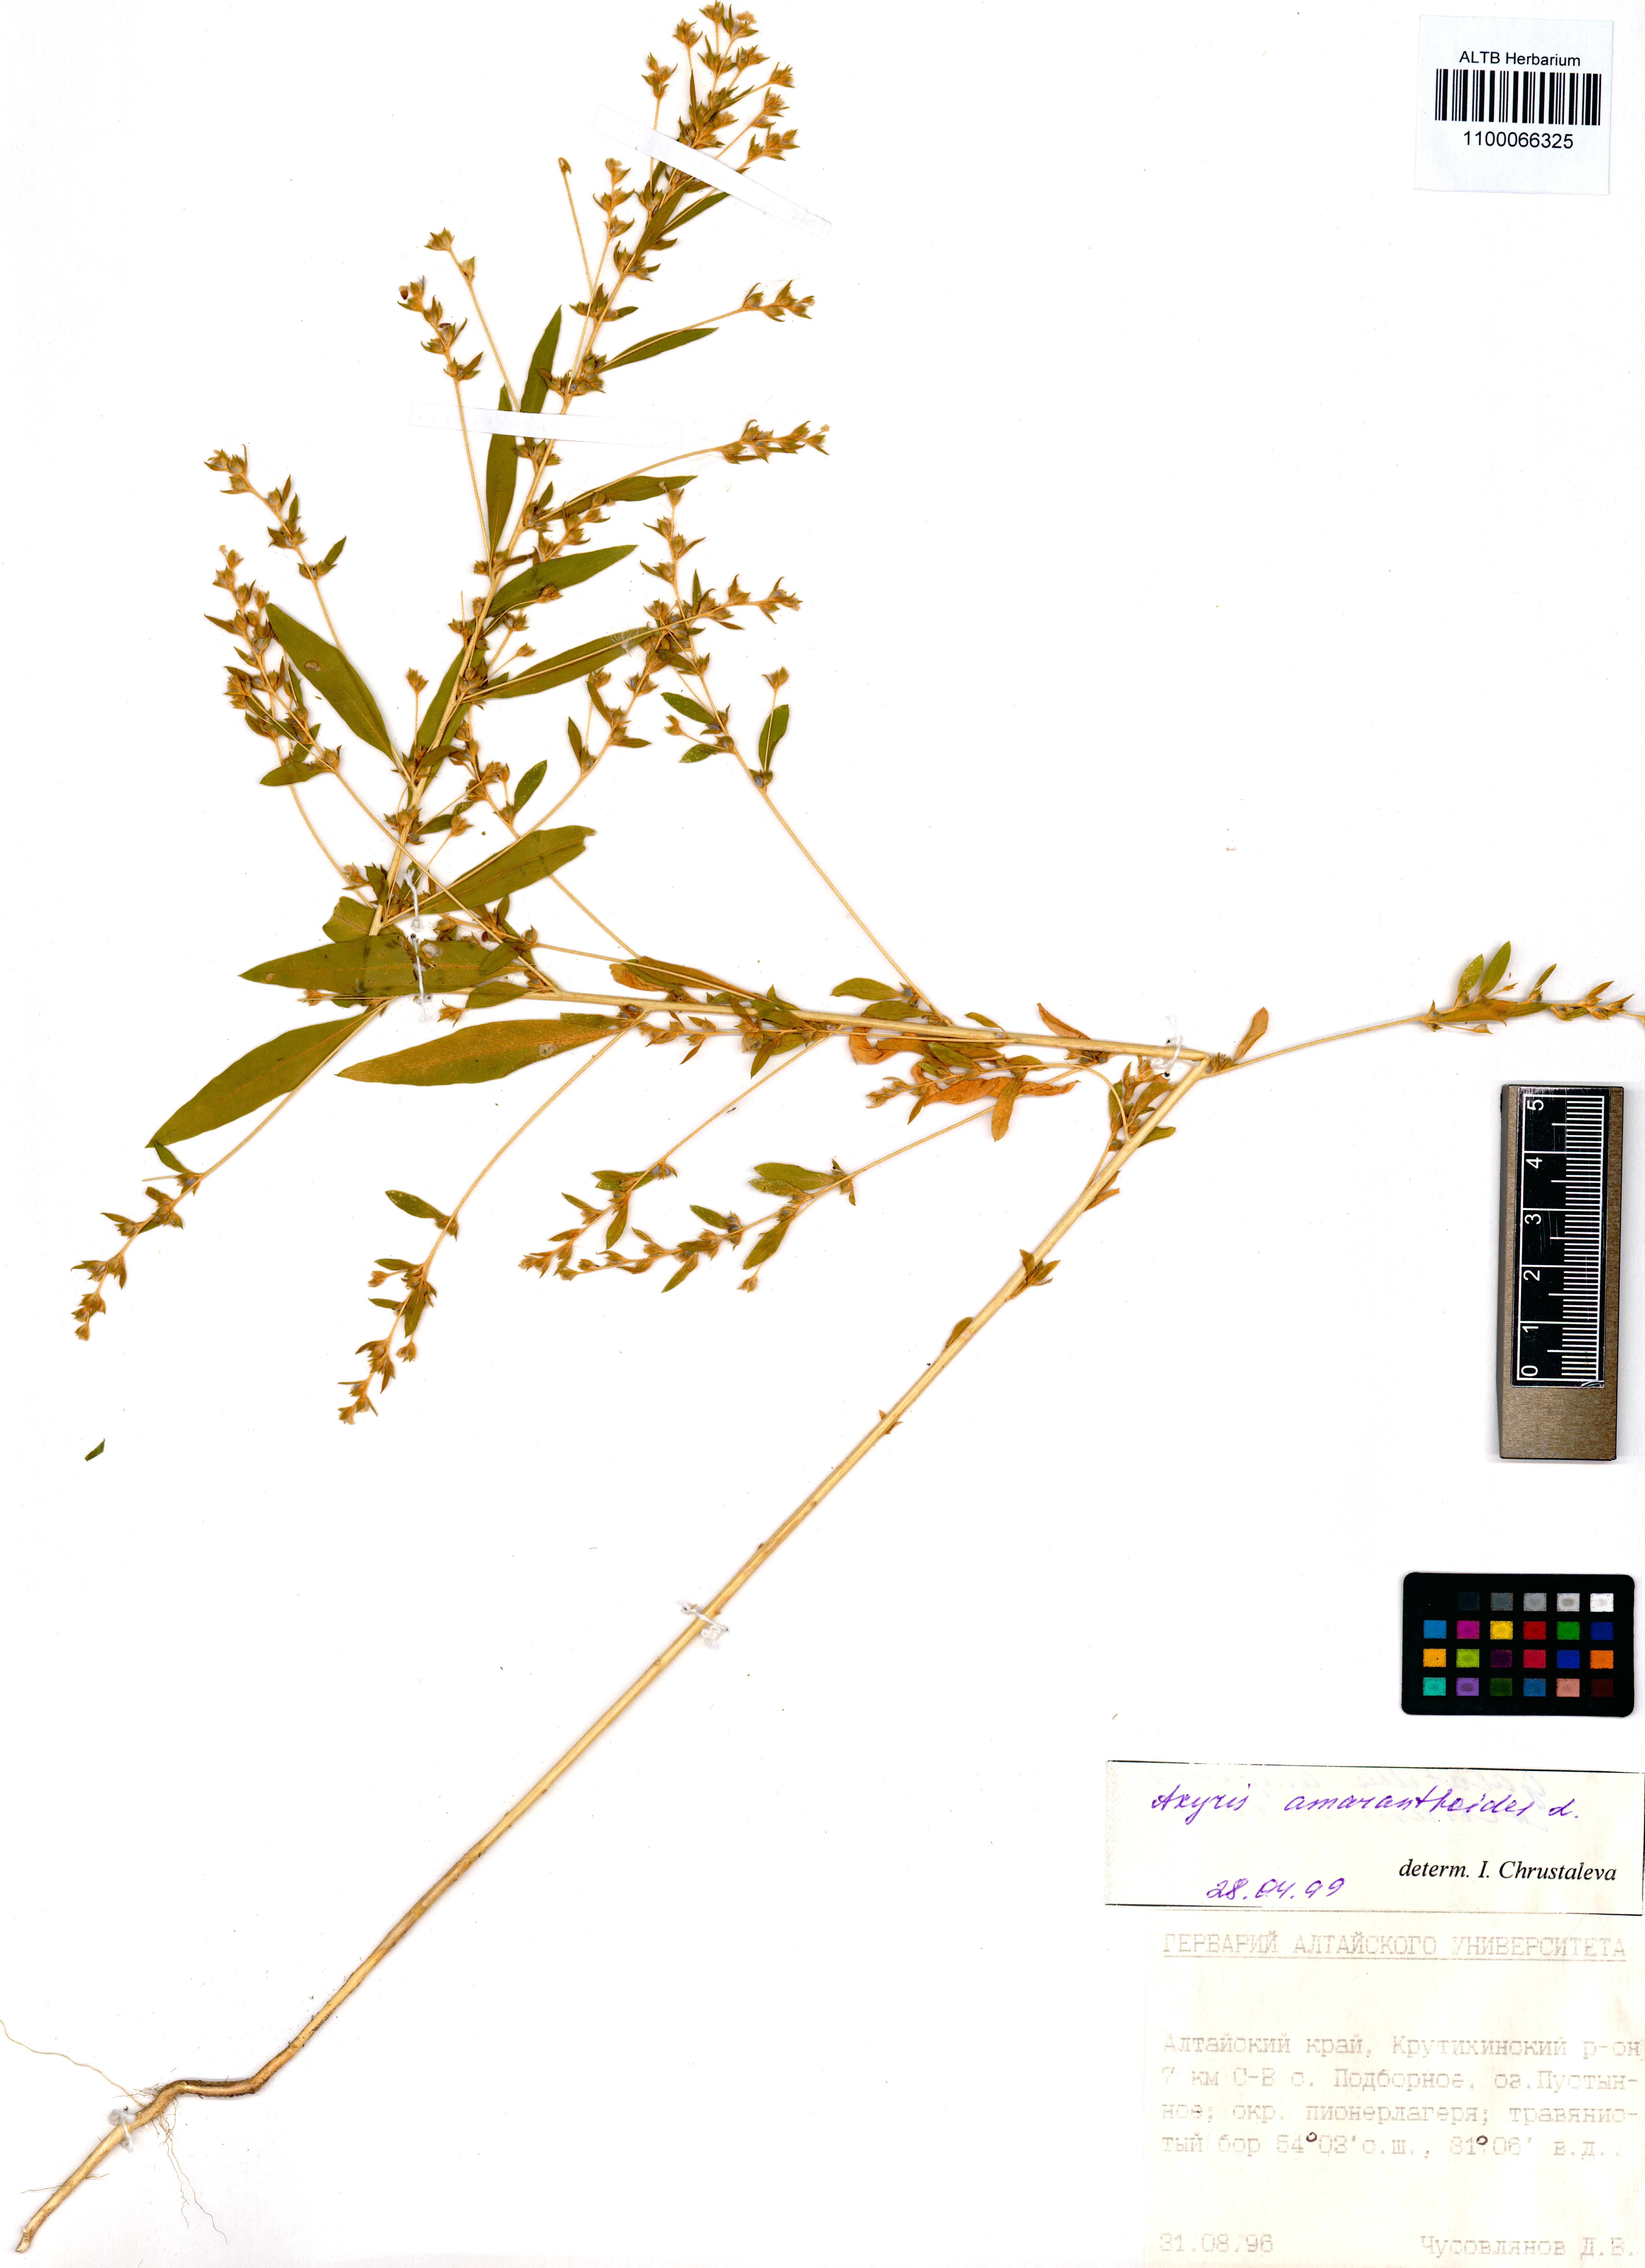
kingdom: Plantae
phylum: Tracheophyta
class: Magnoliopsida
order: Caryophyllales
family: Amaranthaceae
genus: Axyris
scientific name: Axyris amaranthoides
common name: Russian pigweed
